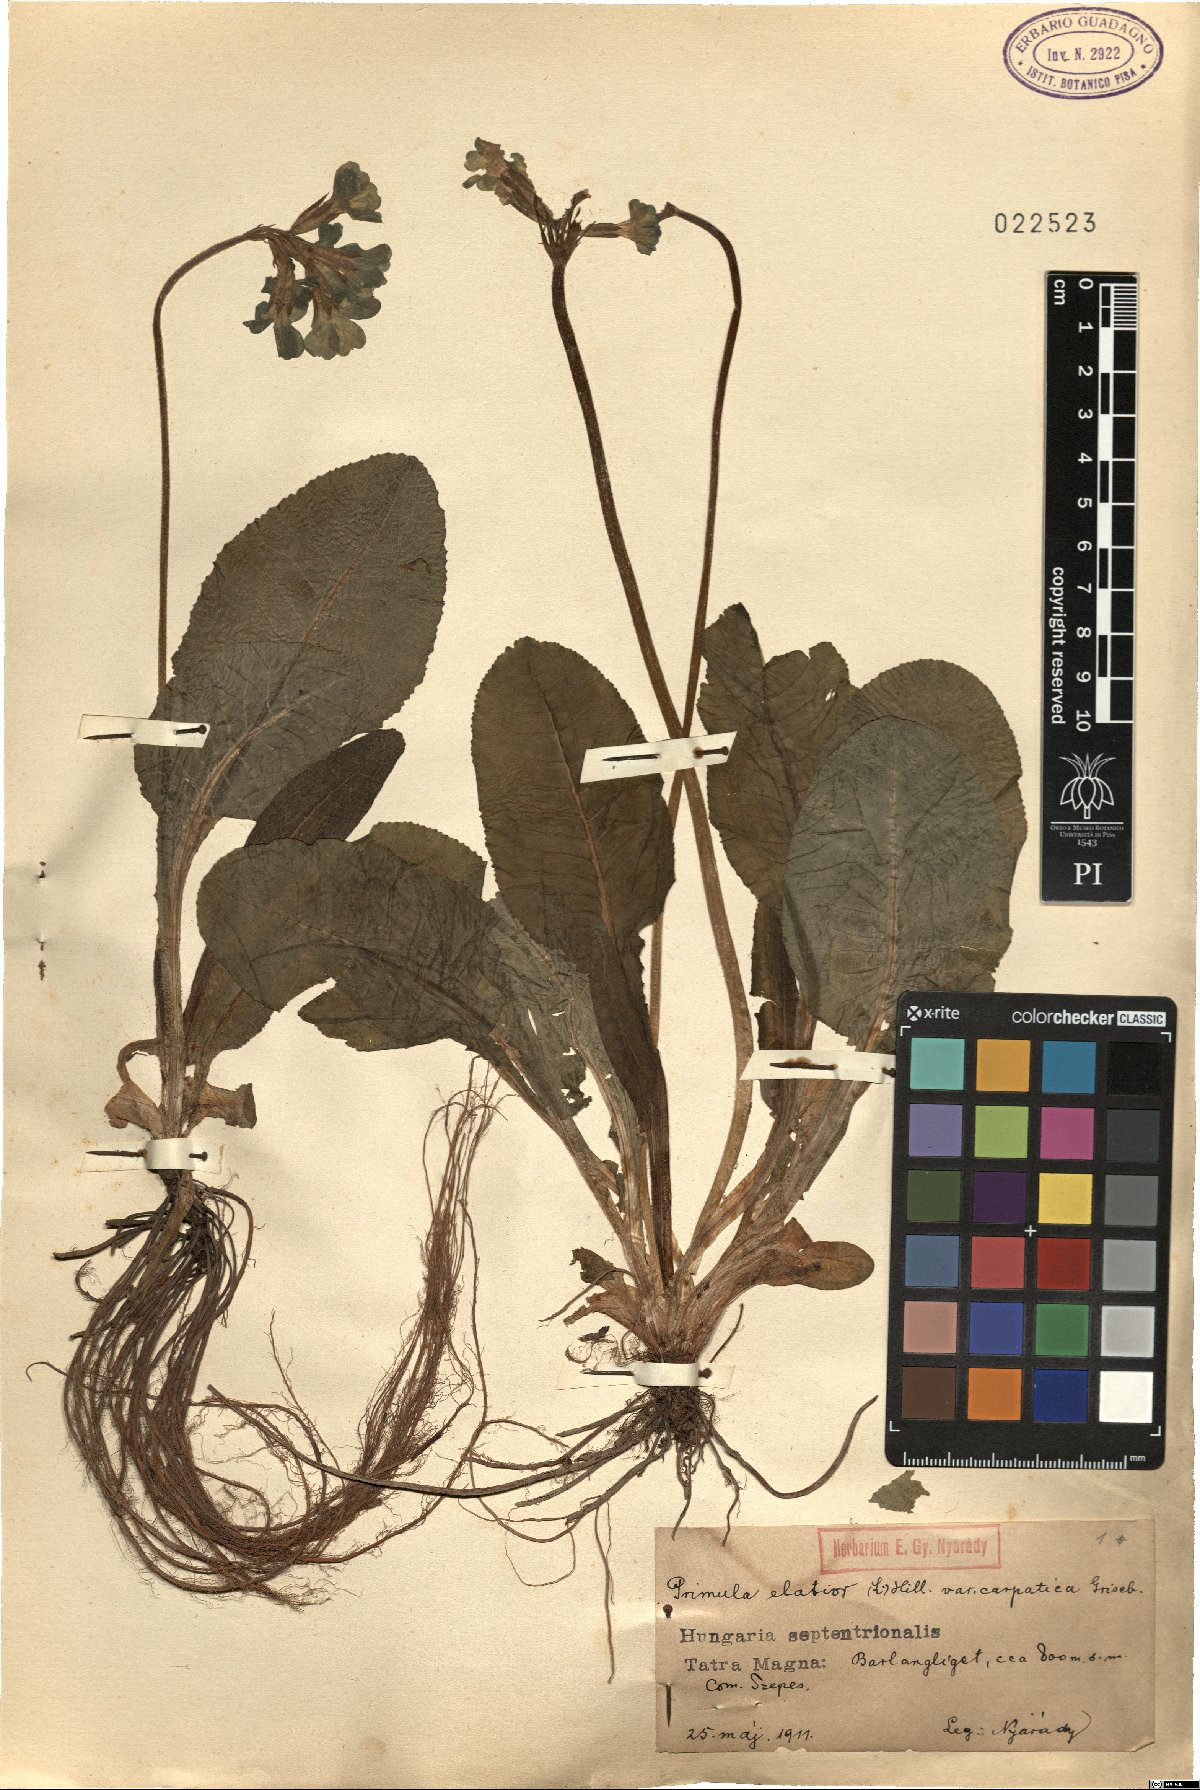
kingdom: Plantae
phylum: Tracheophyta
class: Magnoliopsida
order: Ericales
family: Primulaceae
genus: Primula
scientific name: Primula elatior
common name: Oxlip
